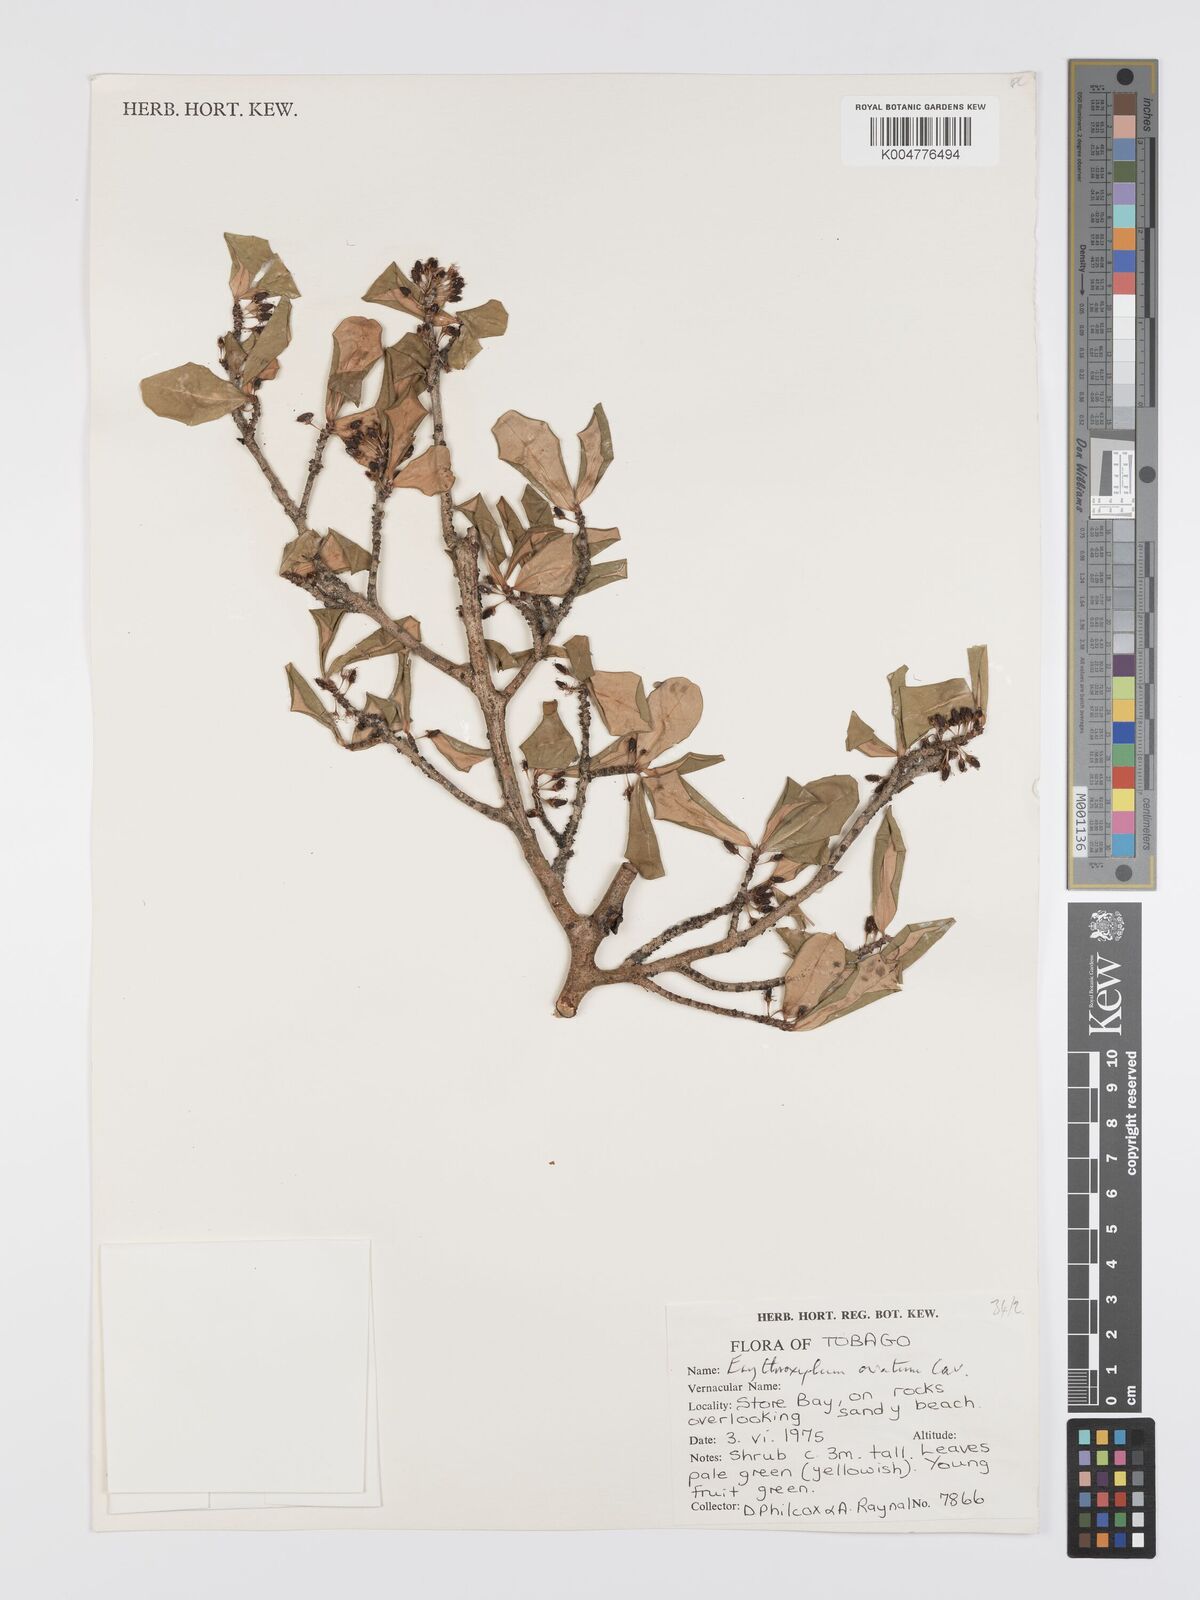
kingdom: Plantae
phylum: Tracheophyta
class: Magnoliopsida
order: Malpighiales
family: Erythroxylaceae
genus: Erythroxylum
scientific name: Erythroxylum havanense
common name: Bracelet
